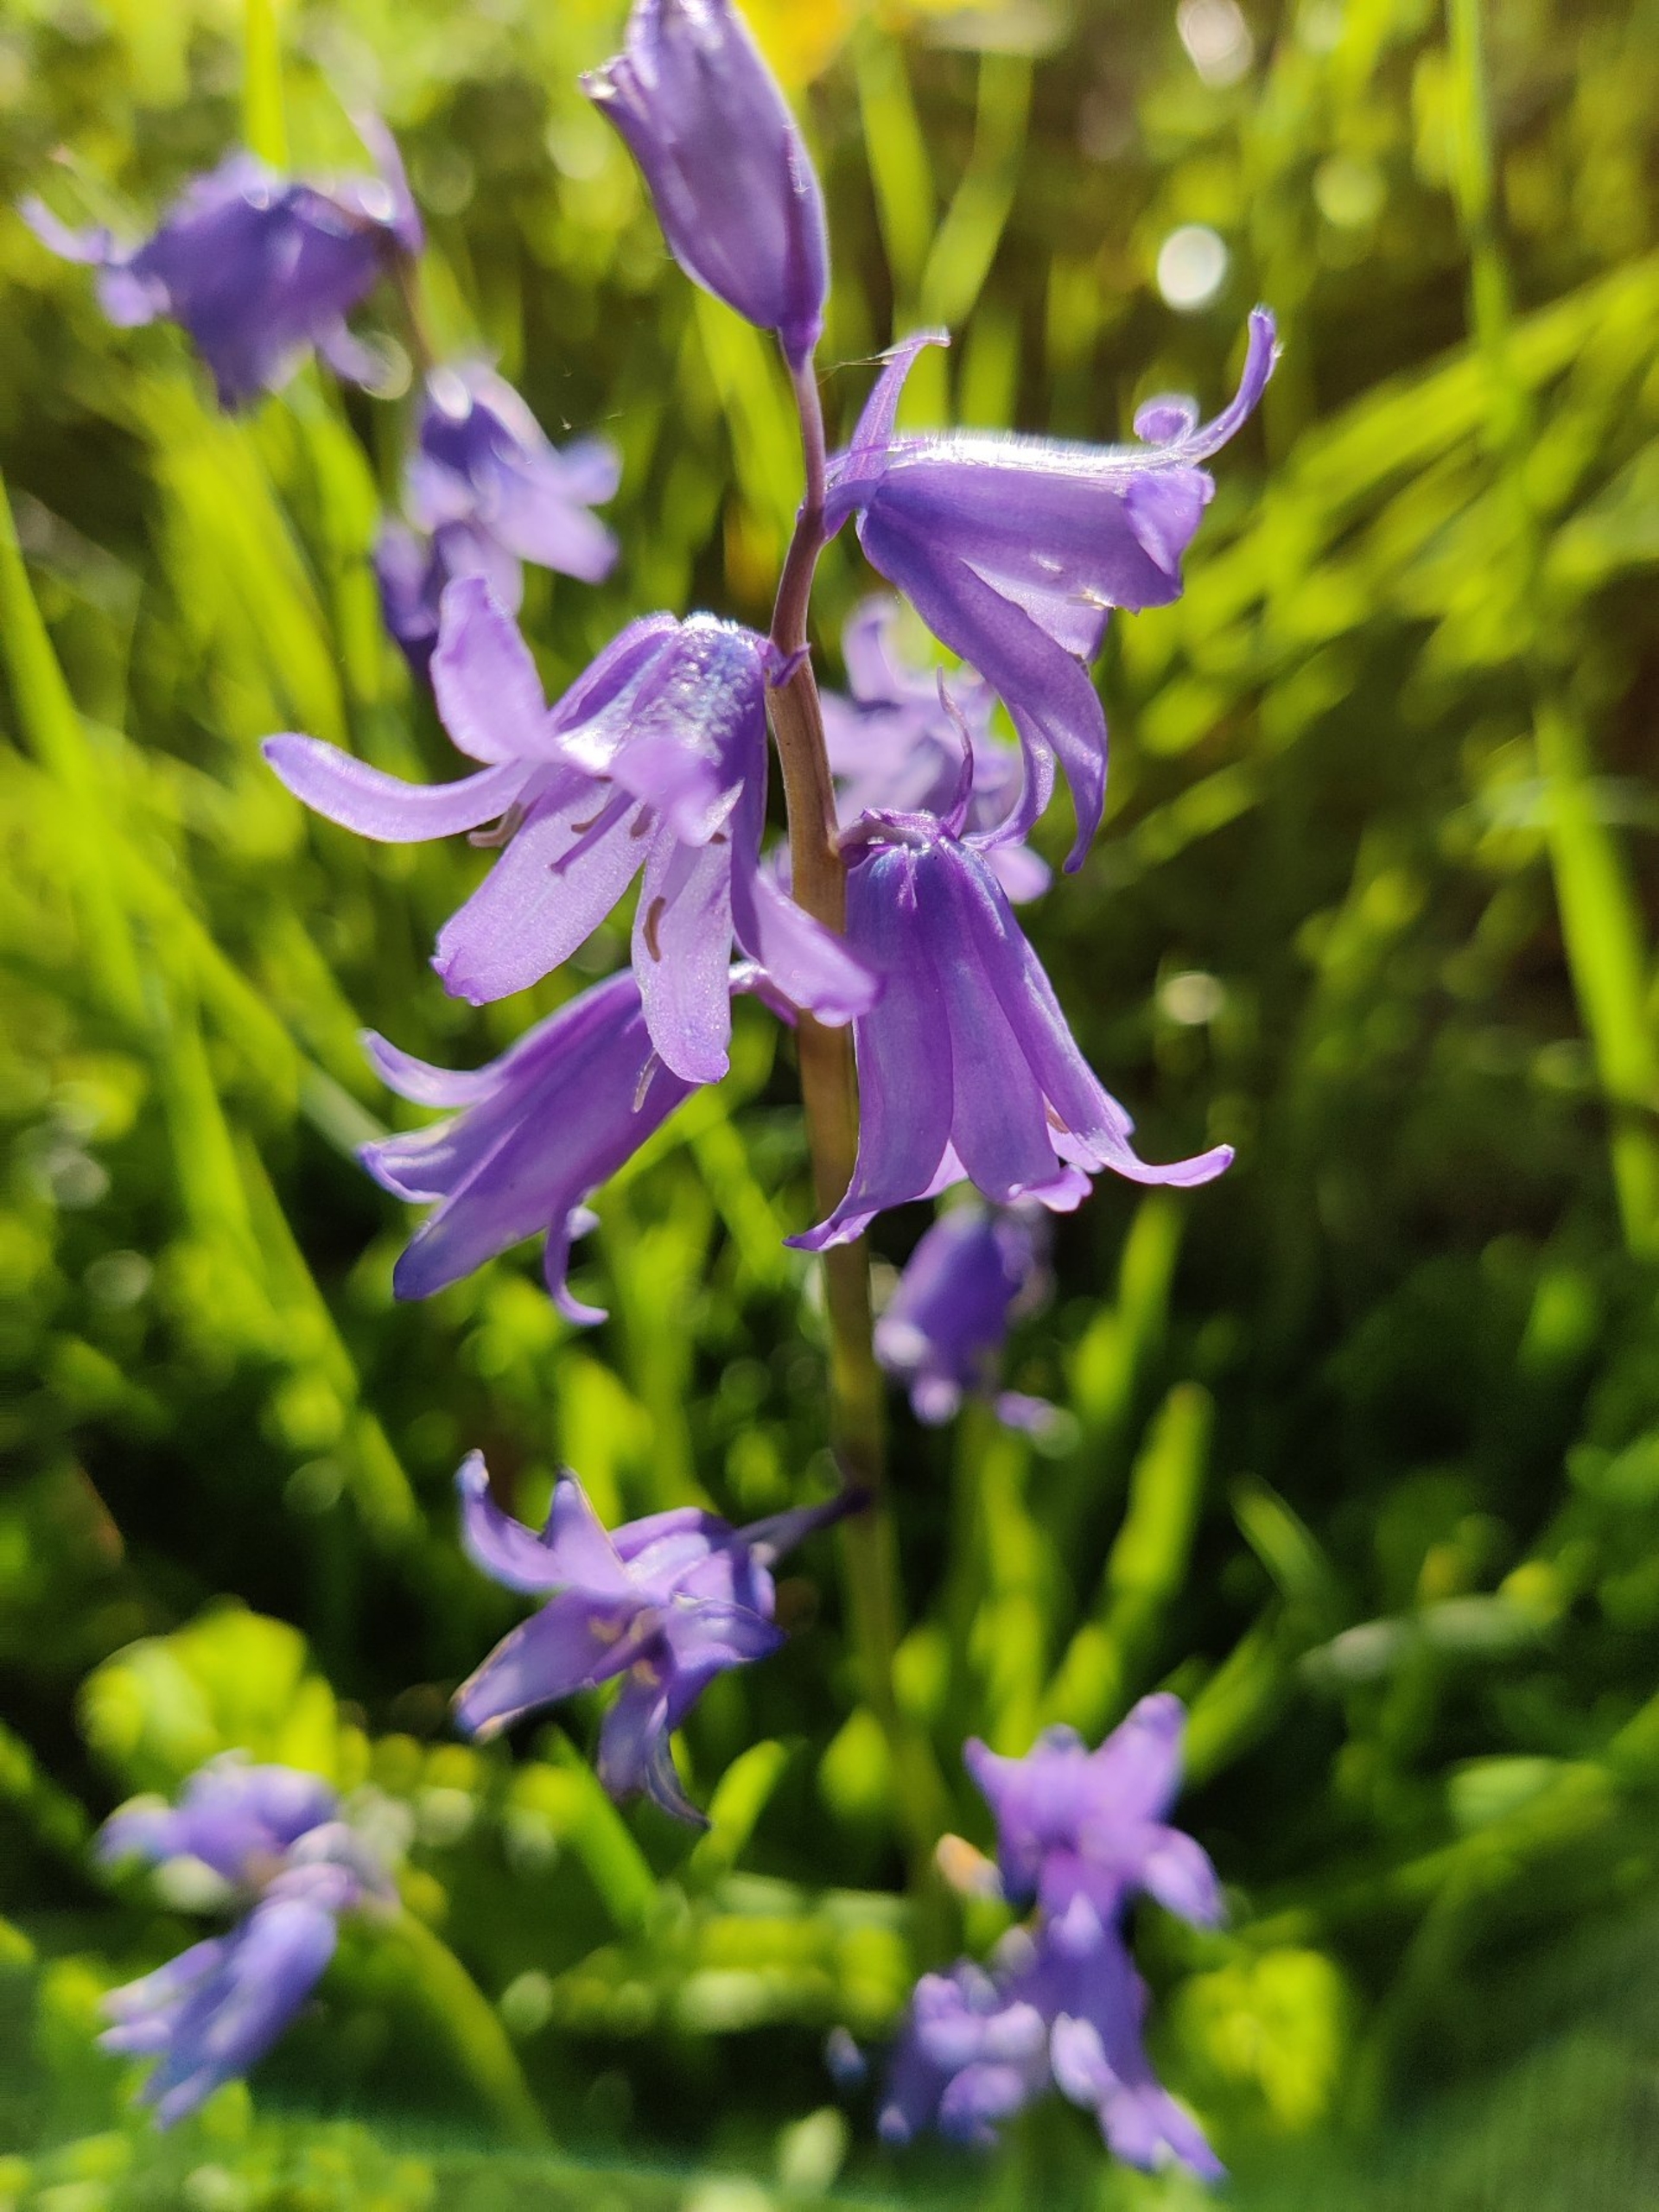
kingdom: Plantae
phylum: Tracheophyta
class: Liliopsida
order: Asparagales
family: Asparagaceae
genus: Hyacinthoides
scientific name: Hyacinthoides non-scripta
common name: Klokke-skilla
